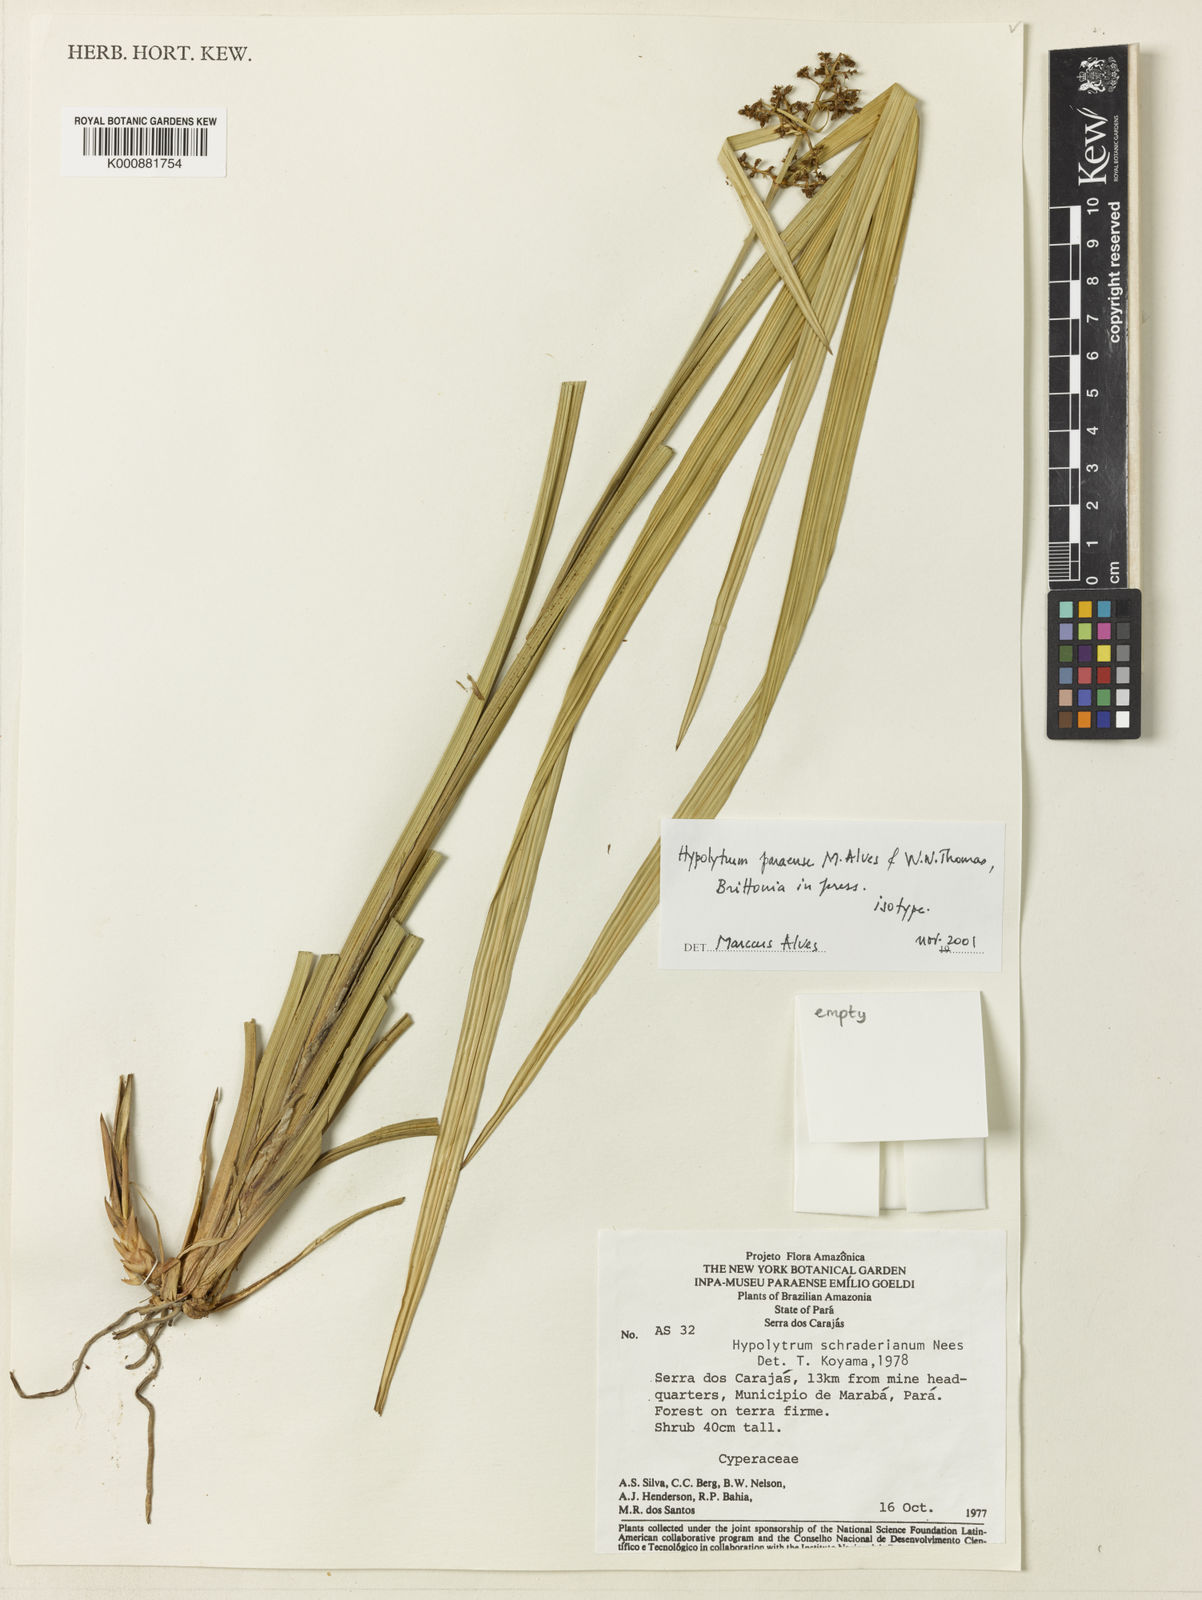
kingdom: Plantae
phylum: Tracheophyta
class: Liliopsida
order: Poales
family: Cyperaceae
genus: Hypolytrum
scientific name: Hypolytrum paraense
